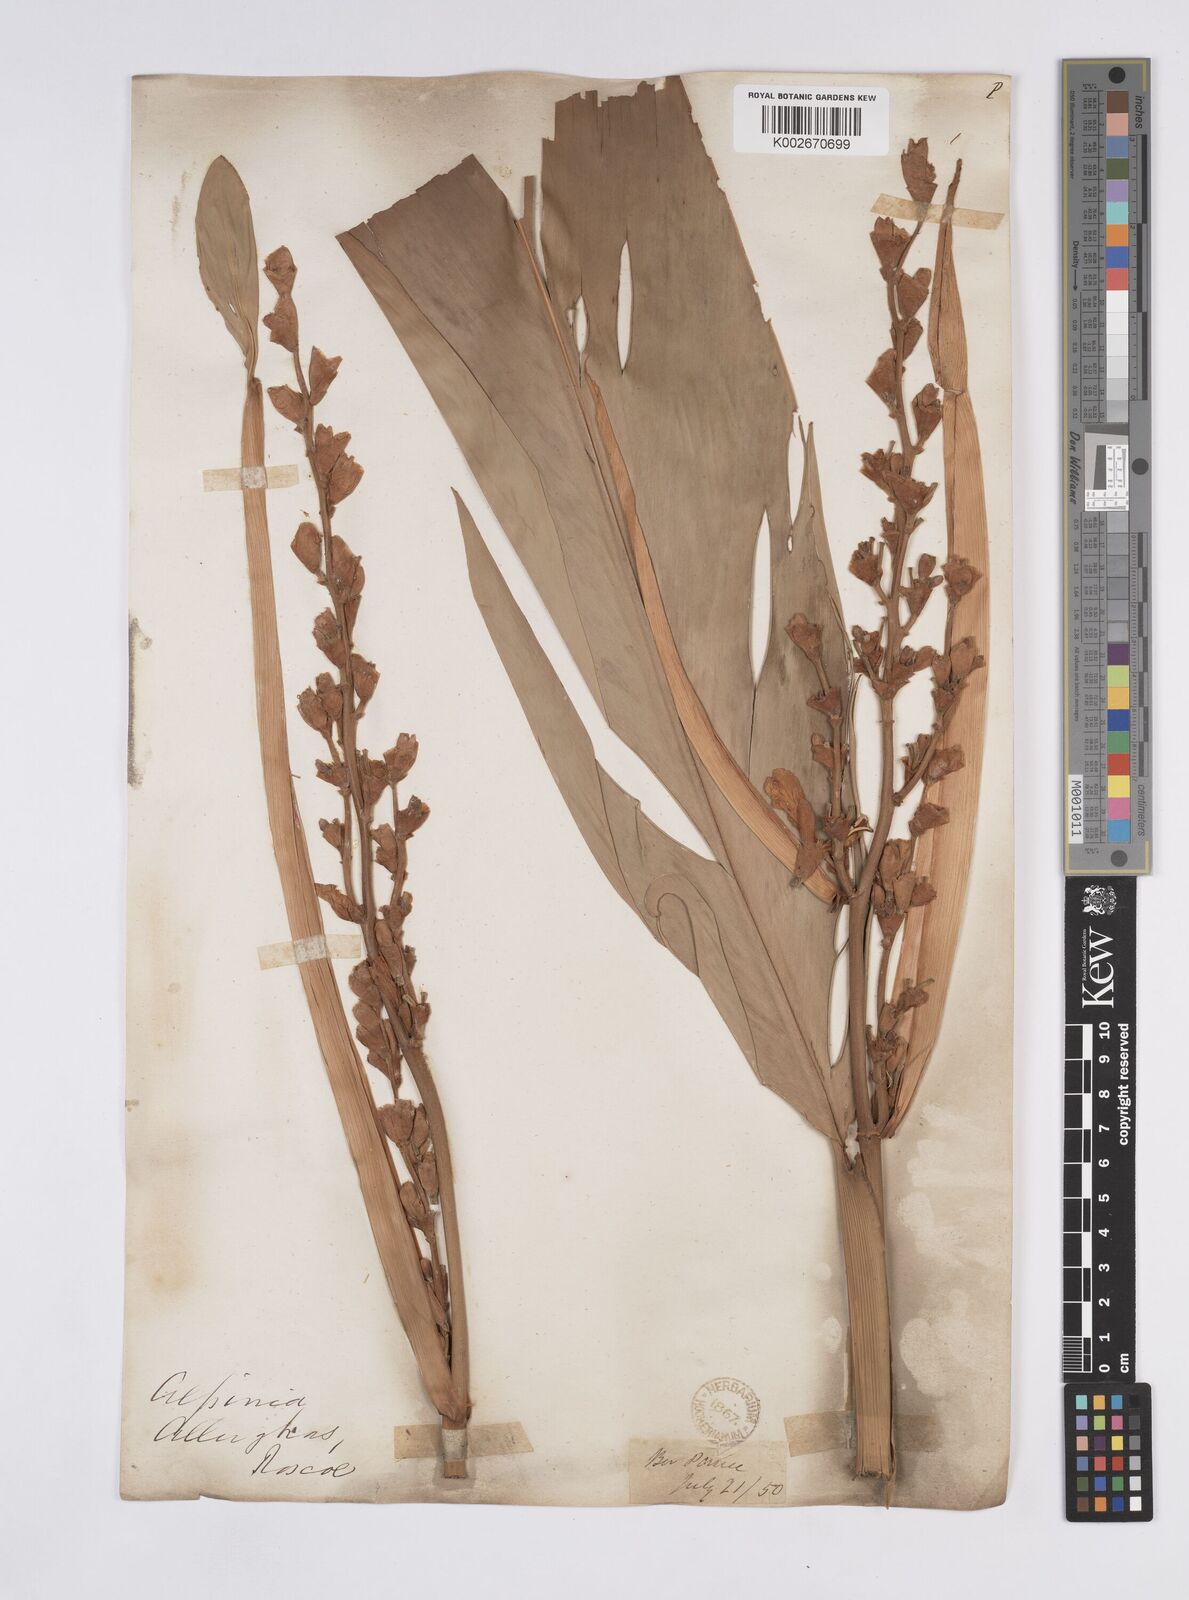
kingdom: Plantae
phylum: Tracheophyta
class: Liliopsida
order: Zingiberales
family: Zingiberaceae
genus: Alpinia
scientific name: Alpinia nigra
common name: Black fruited galanga
